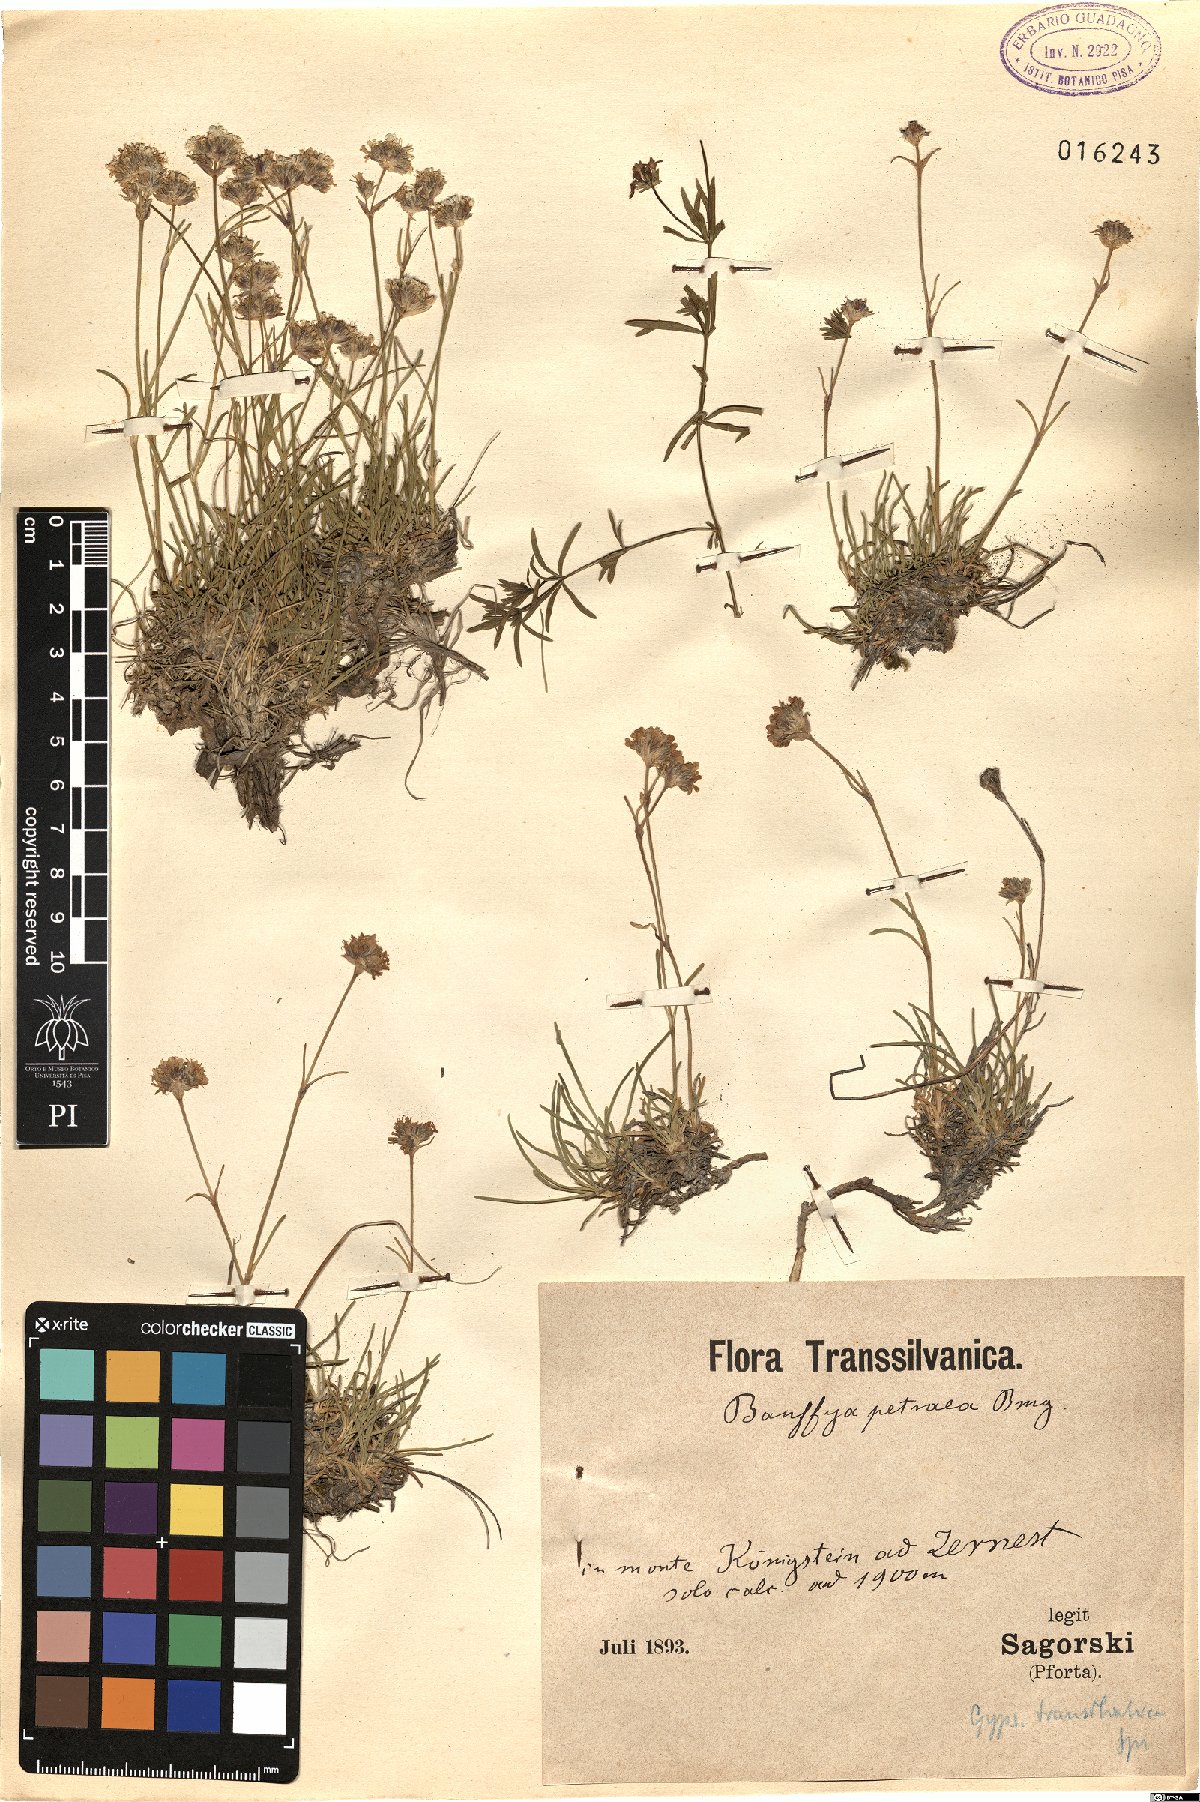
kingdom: Plantae
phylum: Tracheophyta
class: Magnoliopsida
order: Caryophyllales
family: Caryophyllaceae
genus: Gypsophila
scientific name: Gypsophila petraea
